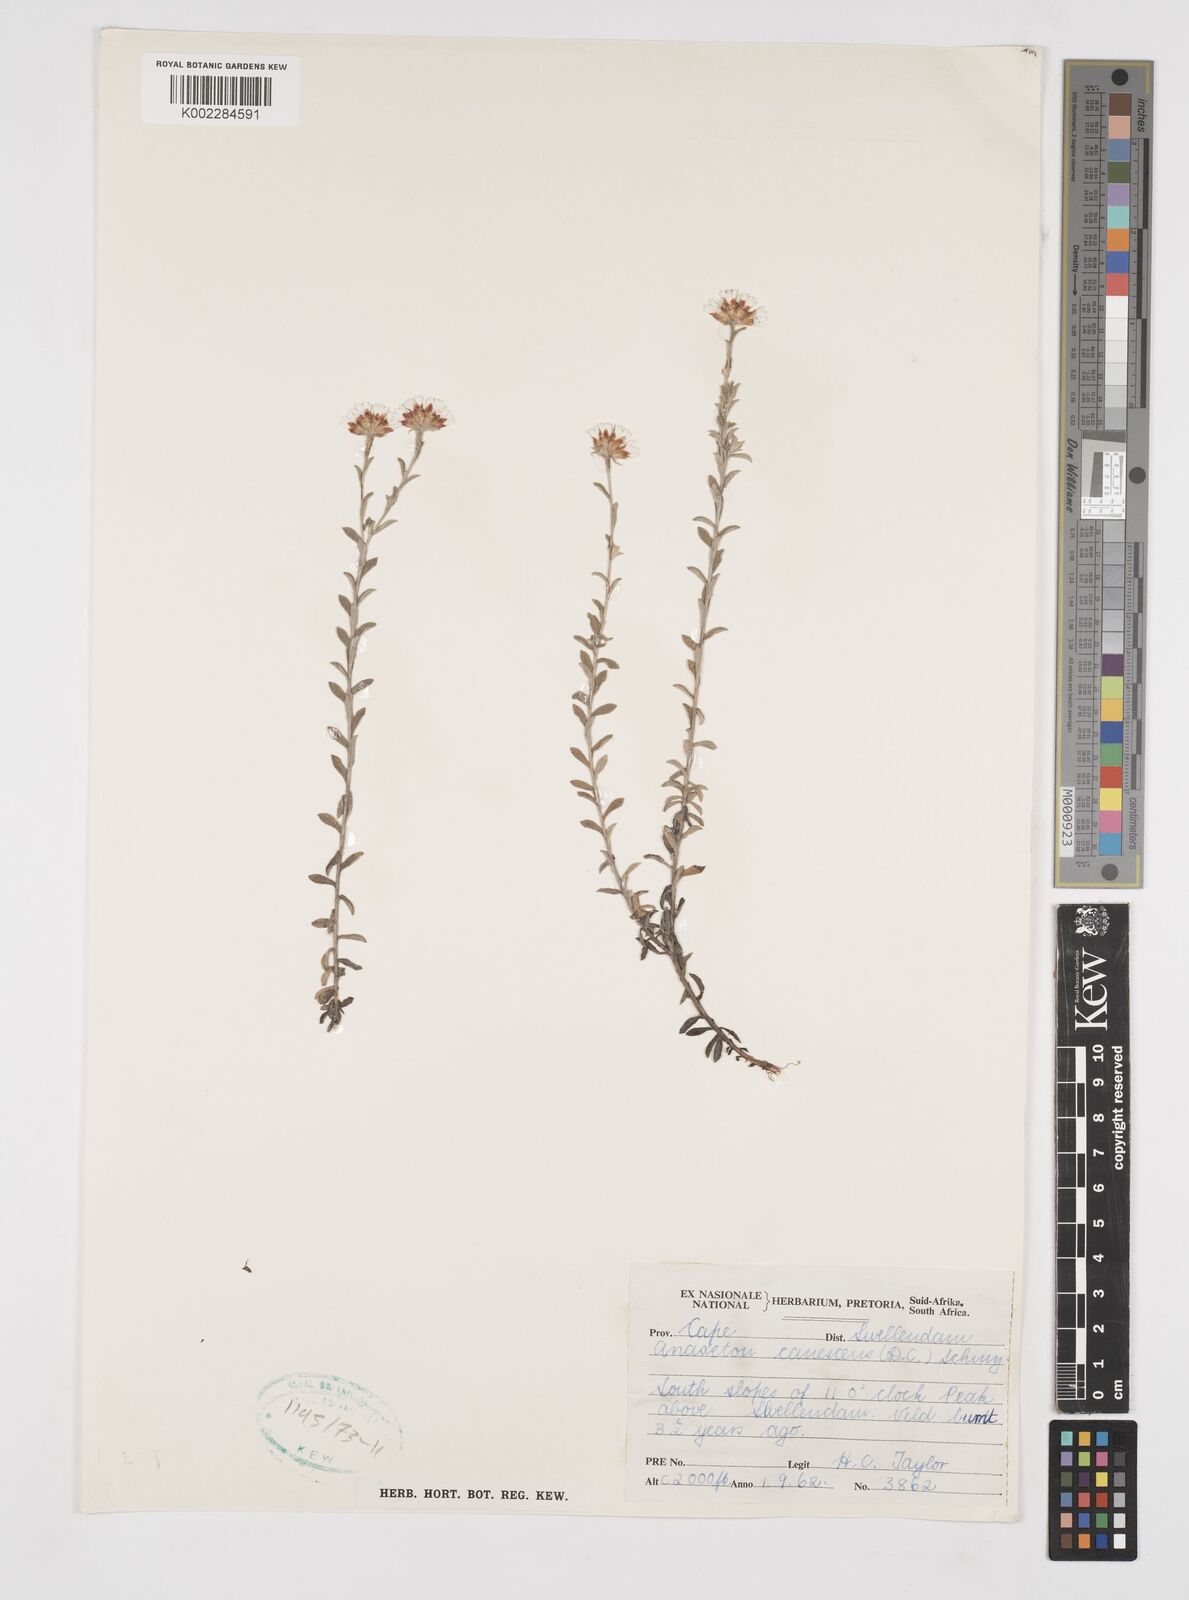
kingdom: Plantae
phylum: Tracheophyta
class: Magnoliopsida
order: Asterales
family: Asteraceae
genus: Langebergia
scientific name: Langebergia canescens
